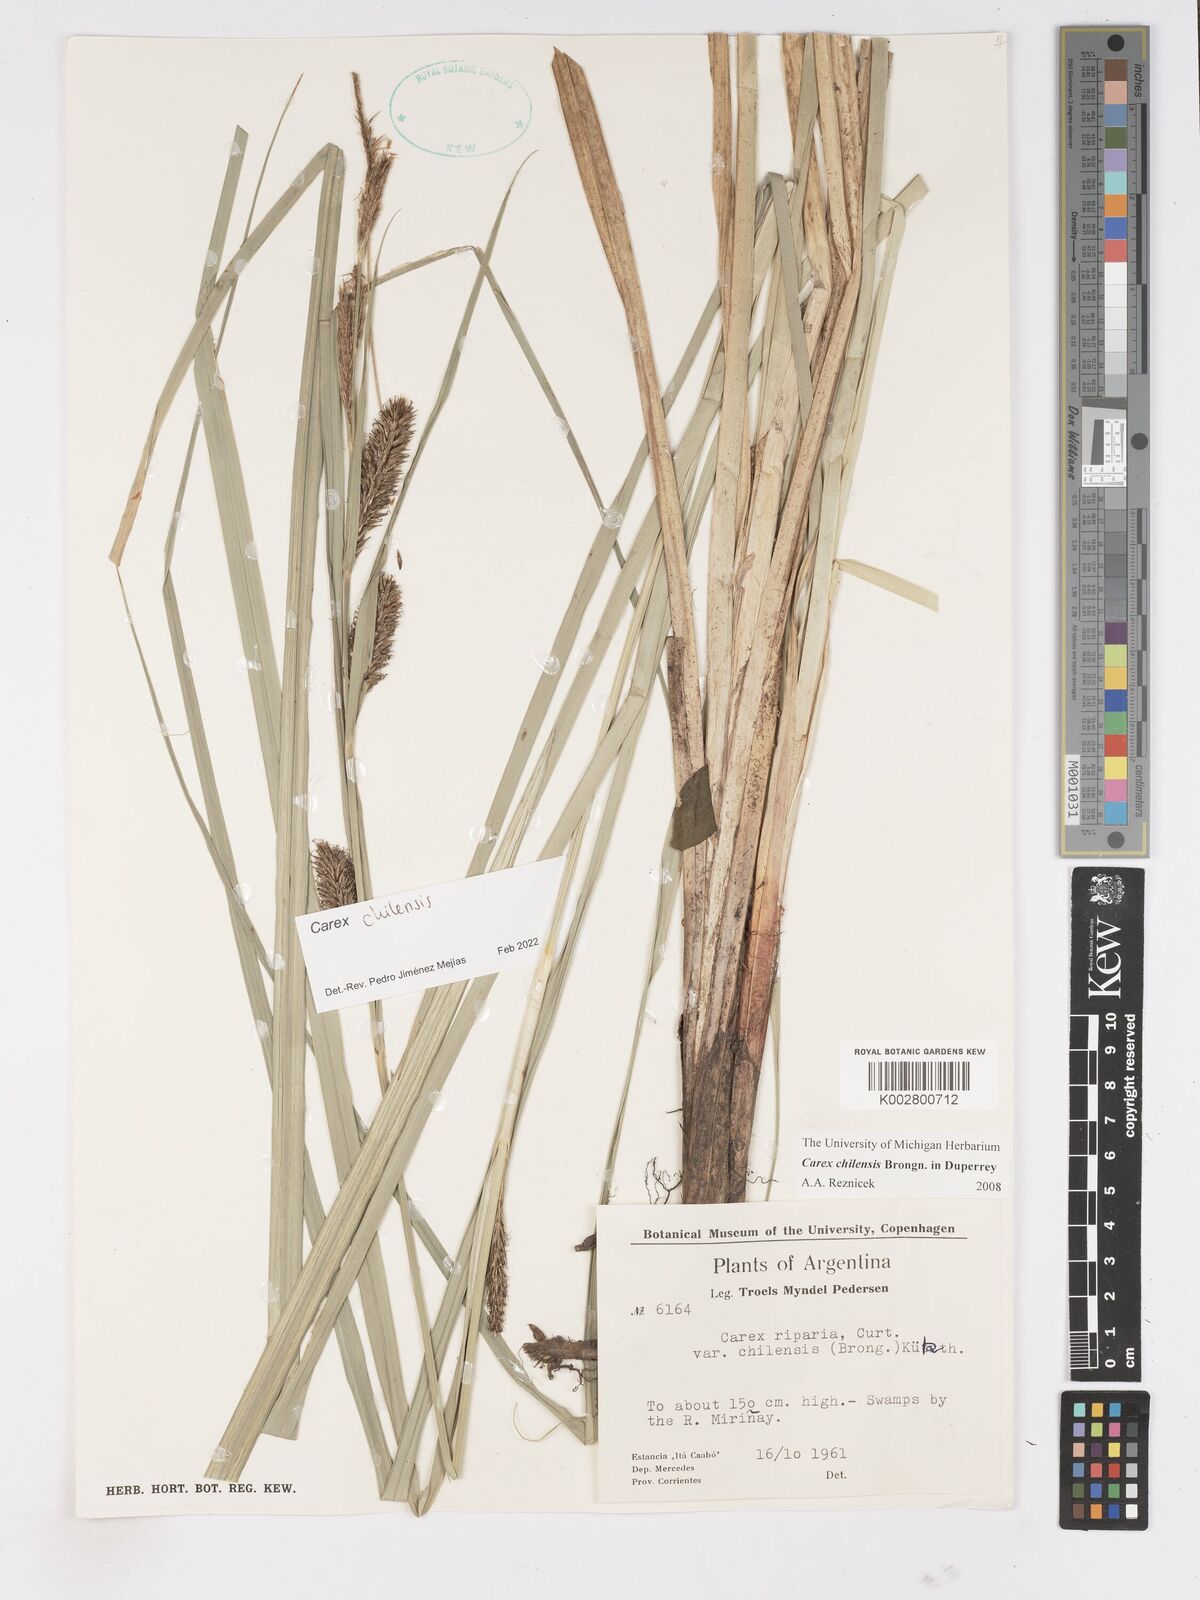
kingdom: Plantae
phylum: Tracheophyta
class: Liliopsida
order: Poales
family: Cyperaceae
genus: Carex
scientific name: Carex chilensis
